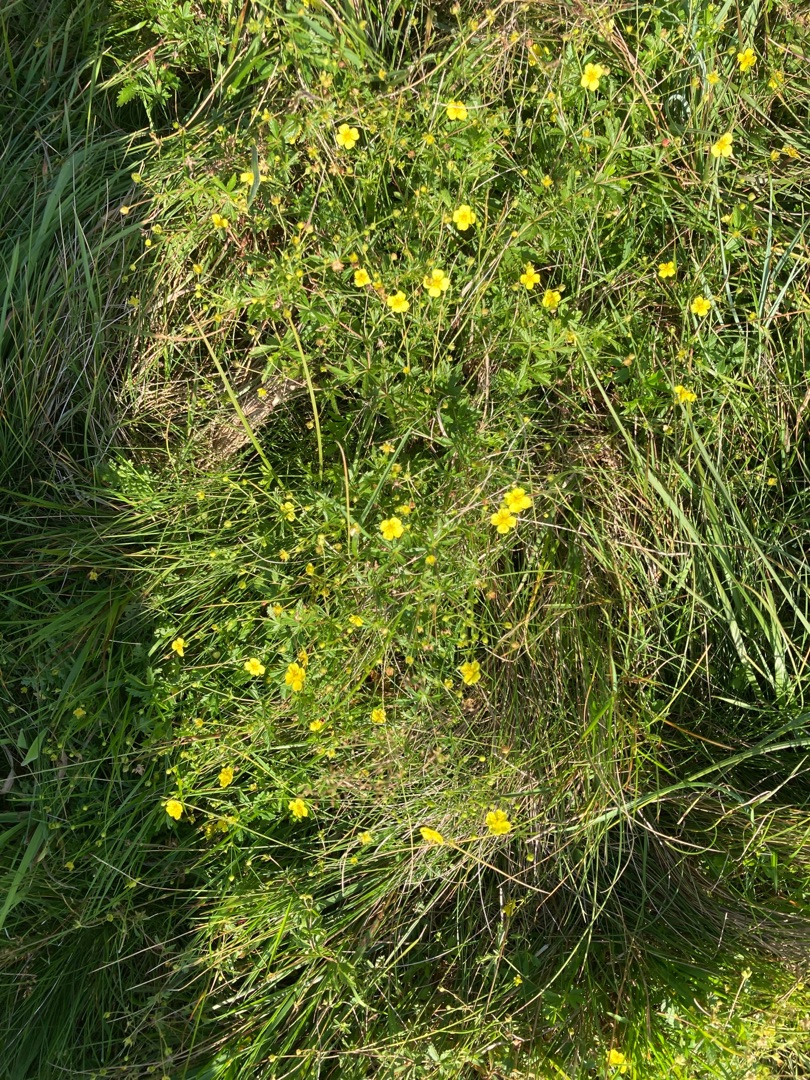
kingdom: Plantae
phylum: Tracheophyta
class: Magnoliopsida
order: Rosales
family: Rosaceae
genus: Potentilla
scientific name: Potentilla erecta
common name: Tormentil
